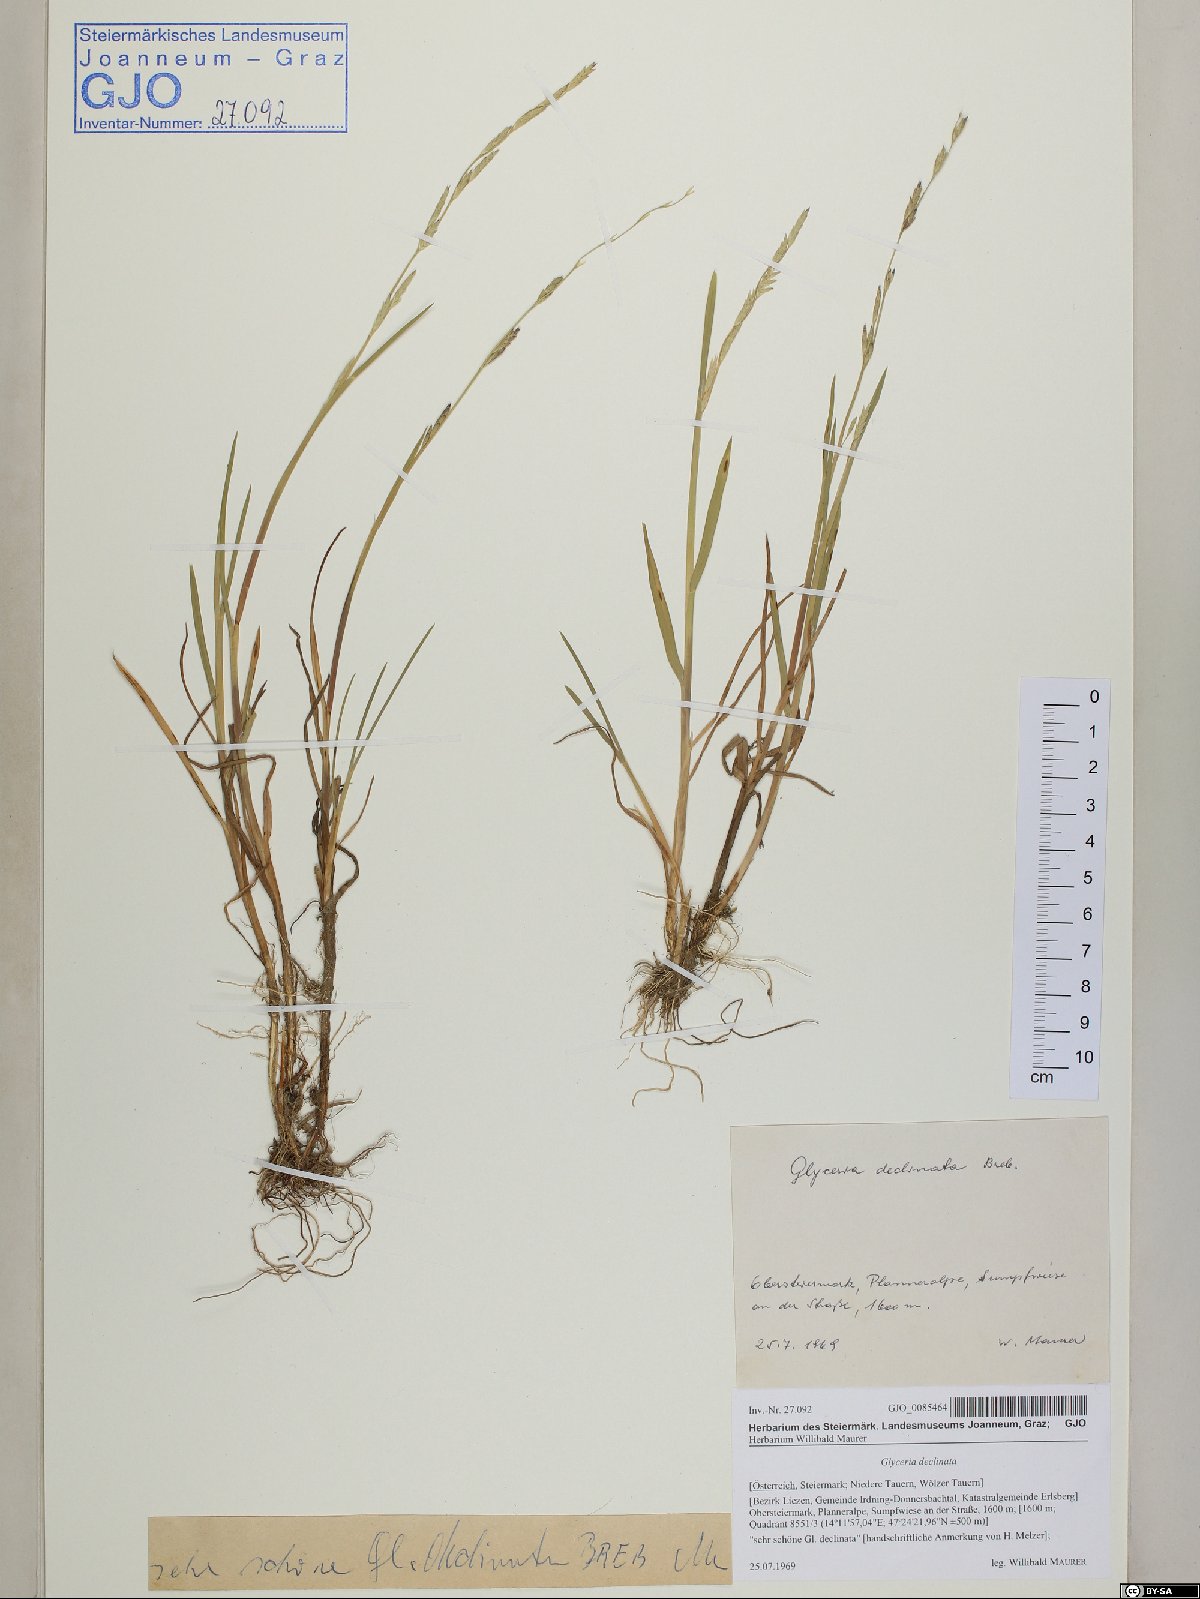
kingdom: Plantae
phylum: Tracheophyta
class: Liliopsida
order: Poales
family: Poaceae
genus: Glyceria
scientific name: Glyceria declinata
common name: Small sweet-grass
